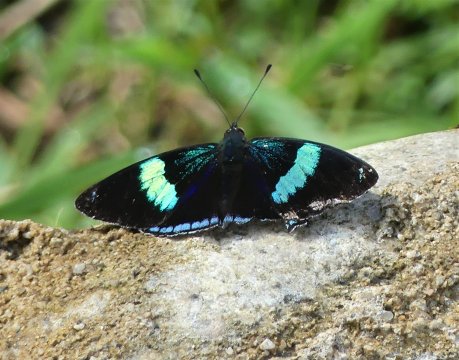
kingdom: Animalia
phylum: Arthropoda
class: Insecta
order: Lepidoptera
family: Nymphalidae
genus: Diaethria
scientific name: Diaethria clymena
